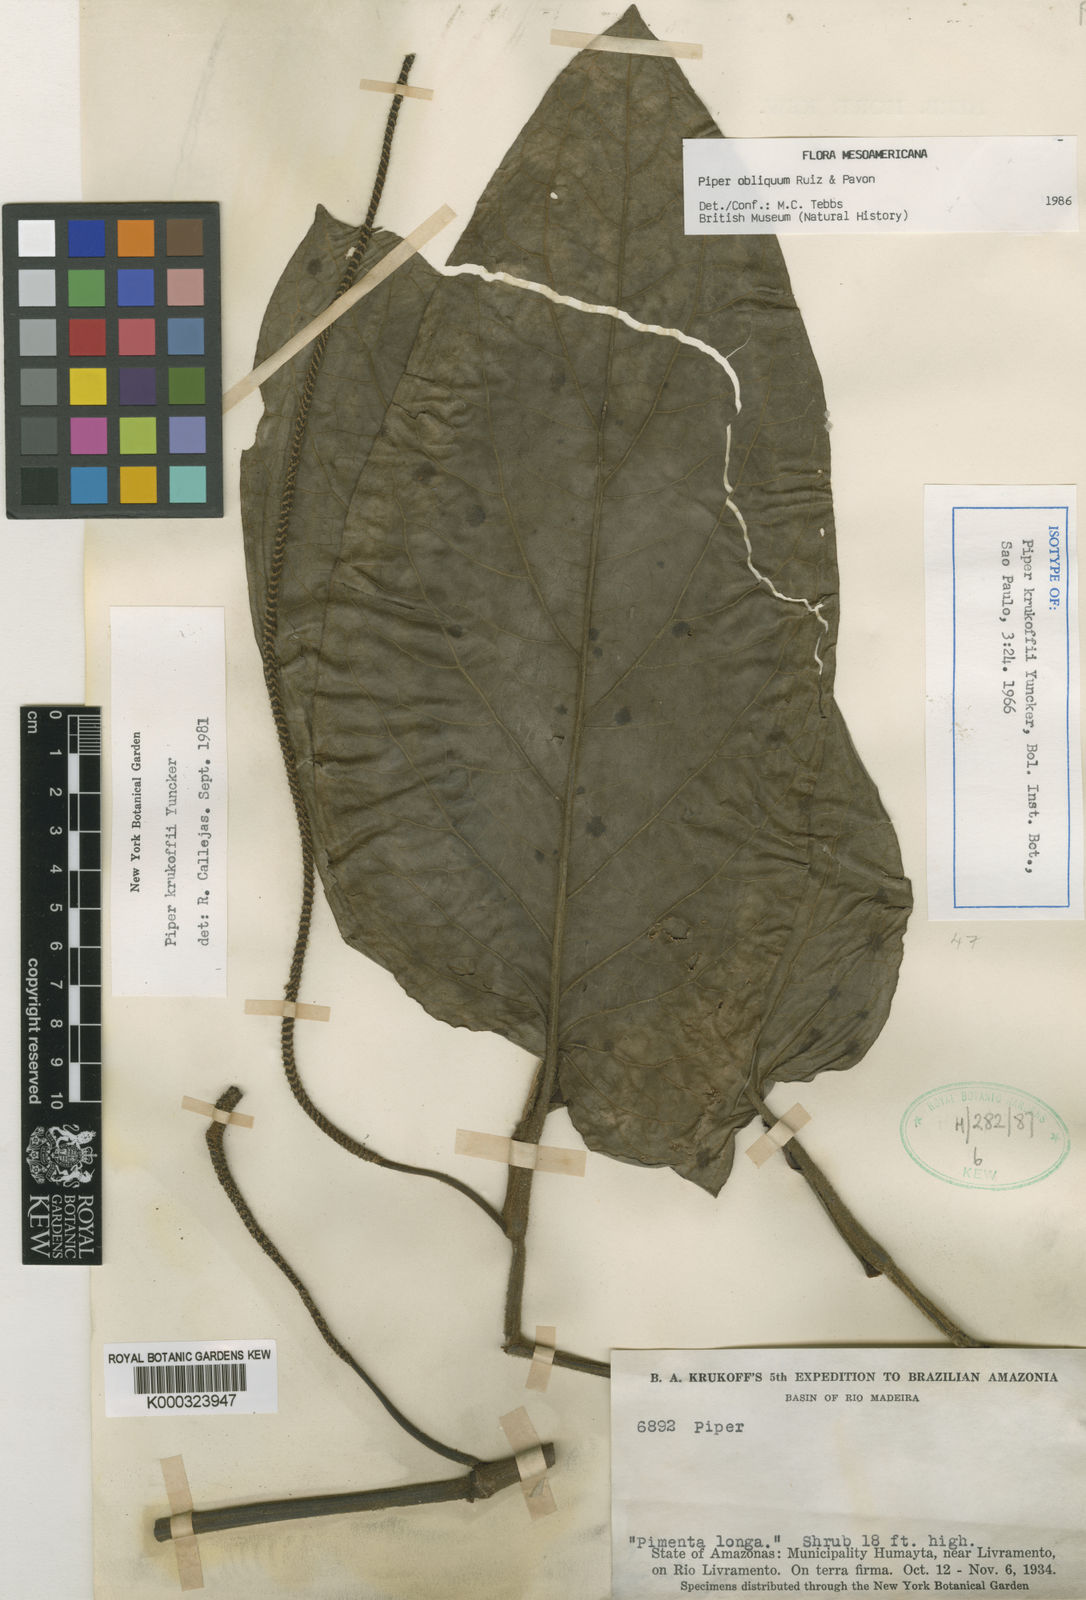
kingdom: Plantae
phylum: Tracheophyta
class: Magnoliopsida
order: Piperales
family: Piperaceae
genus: Piper
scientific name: Piper obliquum
